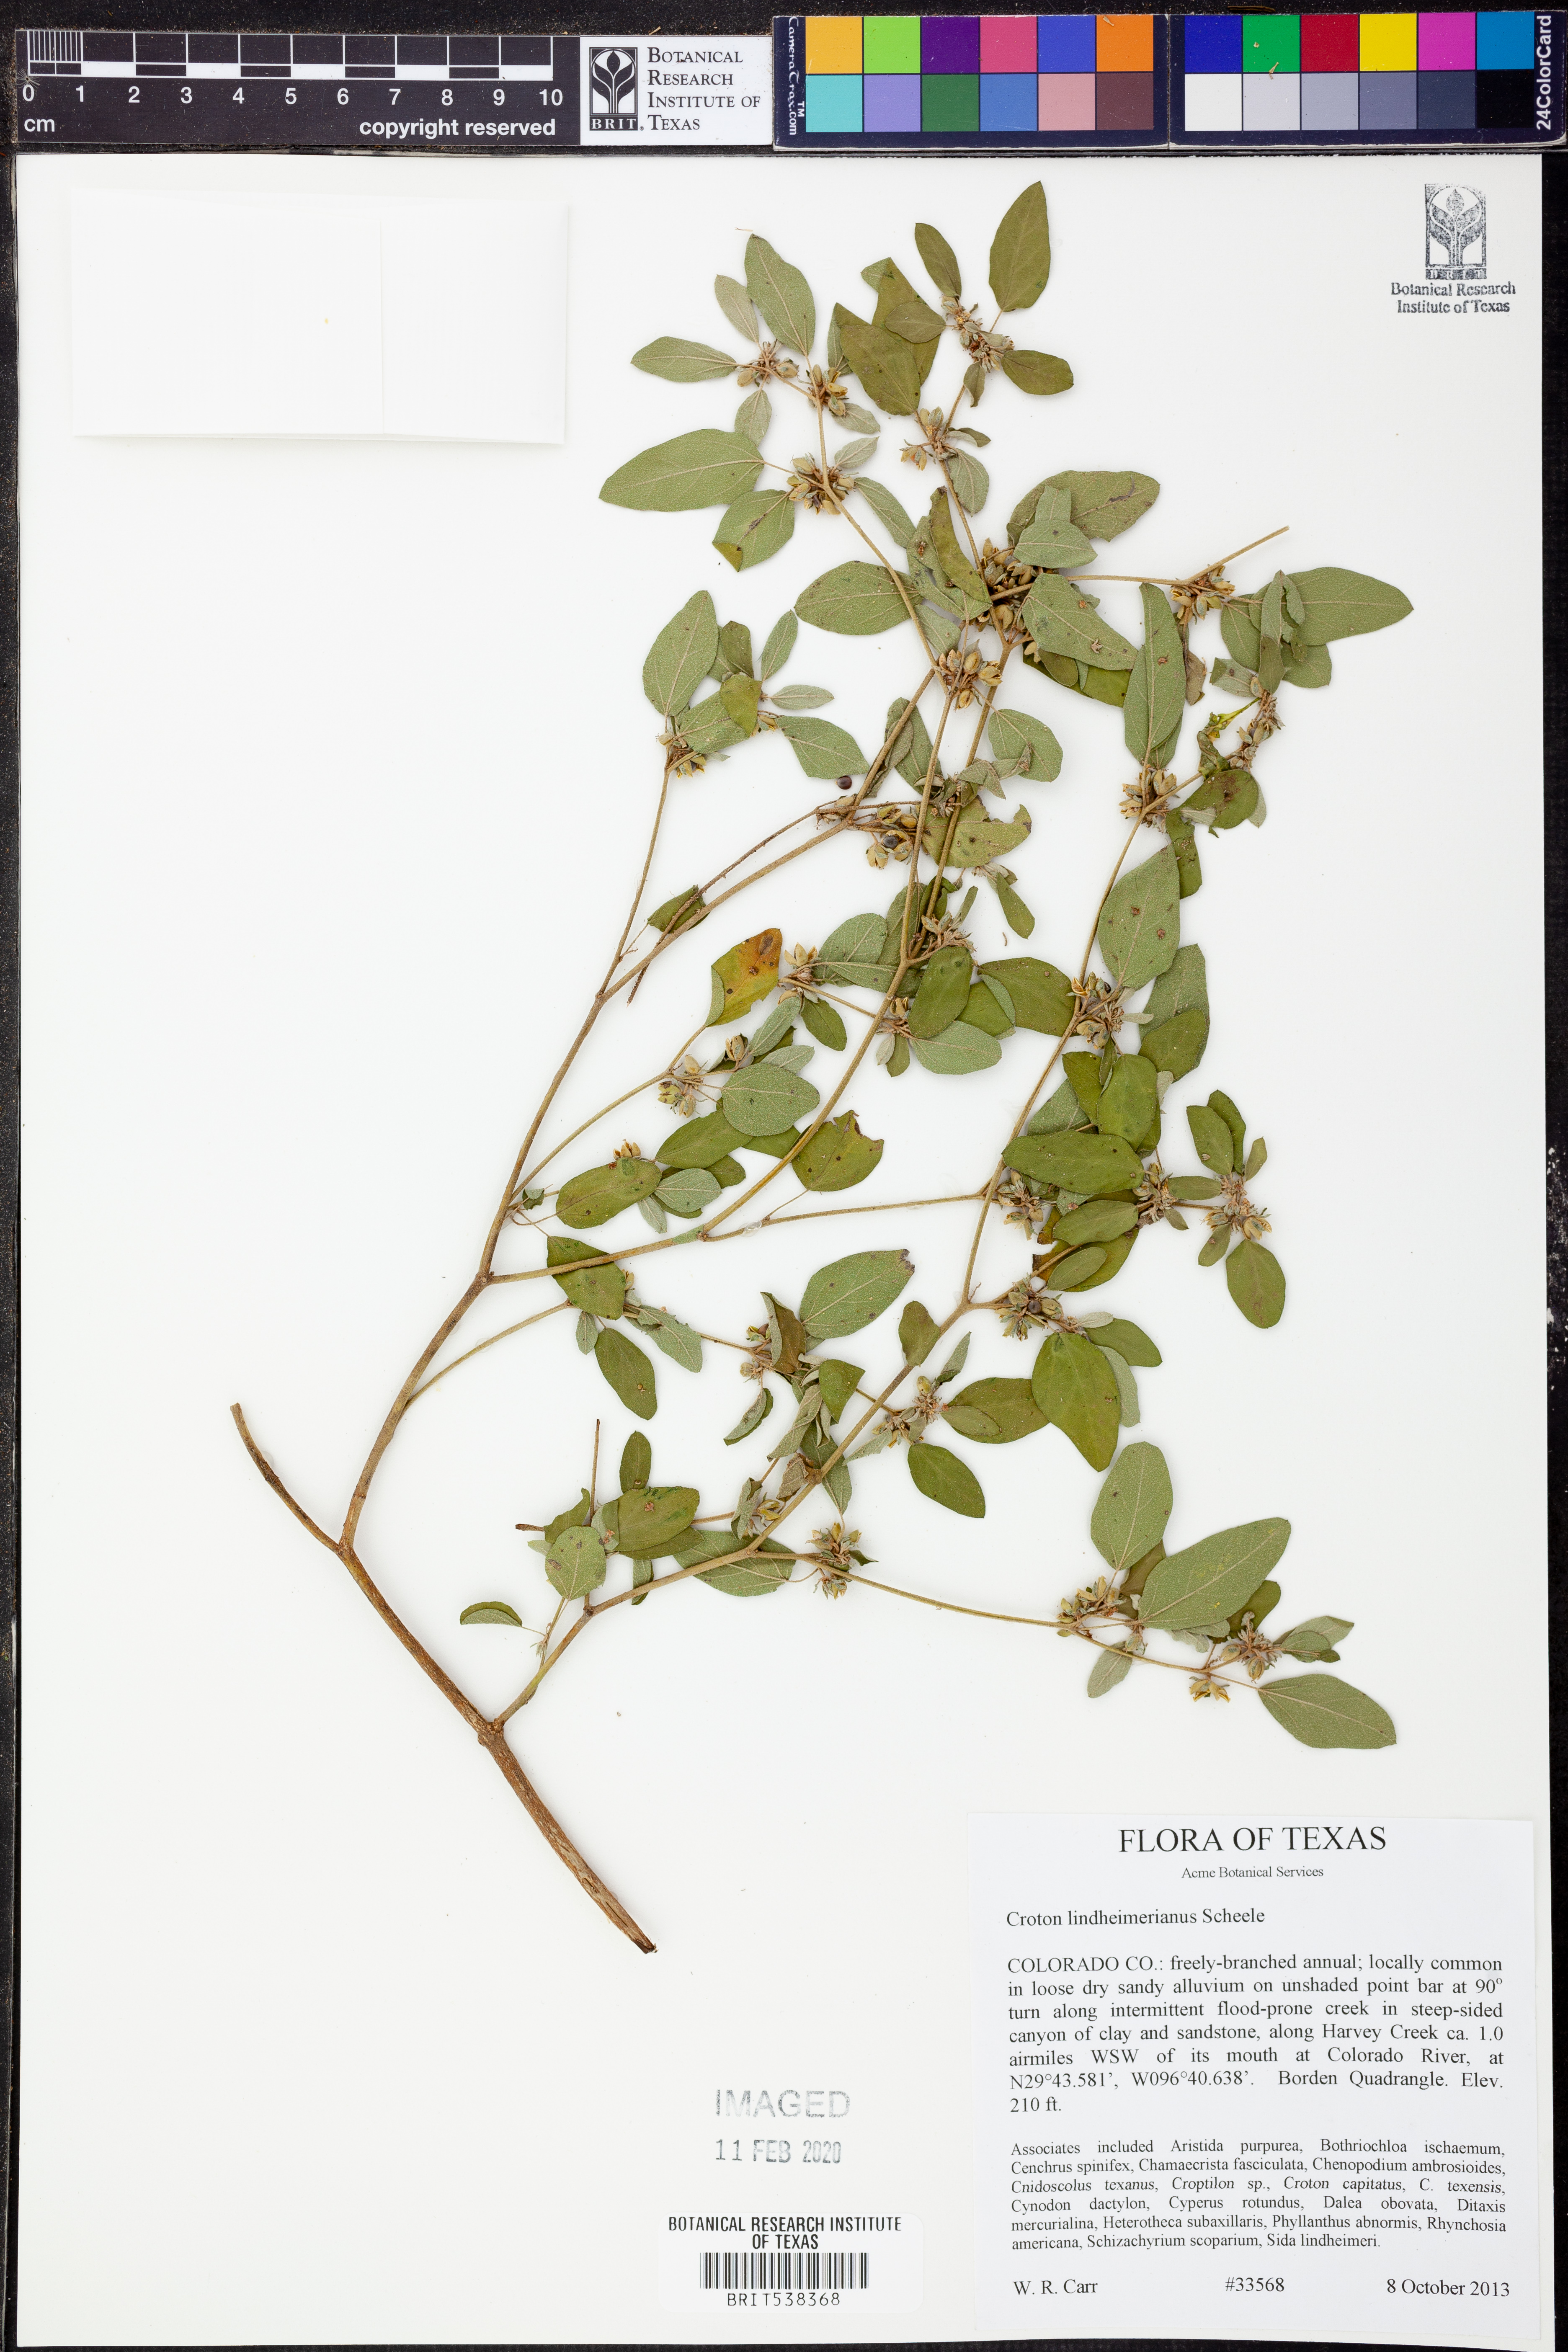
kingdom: Plantae
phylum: Tracheophyta
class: Magnoliopsida
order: Malpighiales
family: Euphorbiaceae
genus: Croton
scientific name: Croton lindheimerianus
